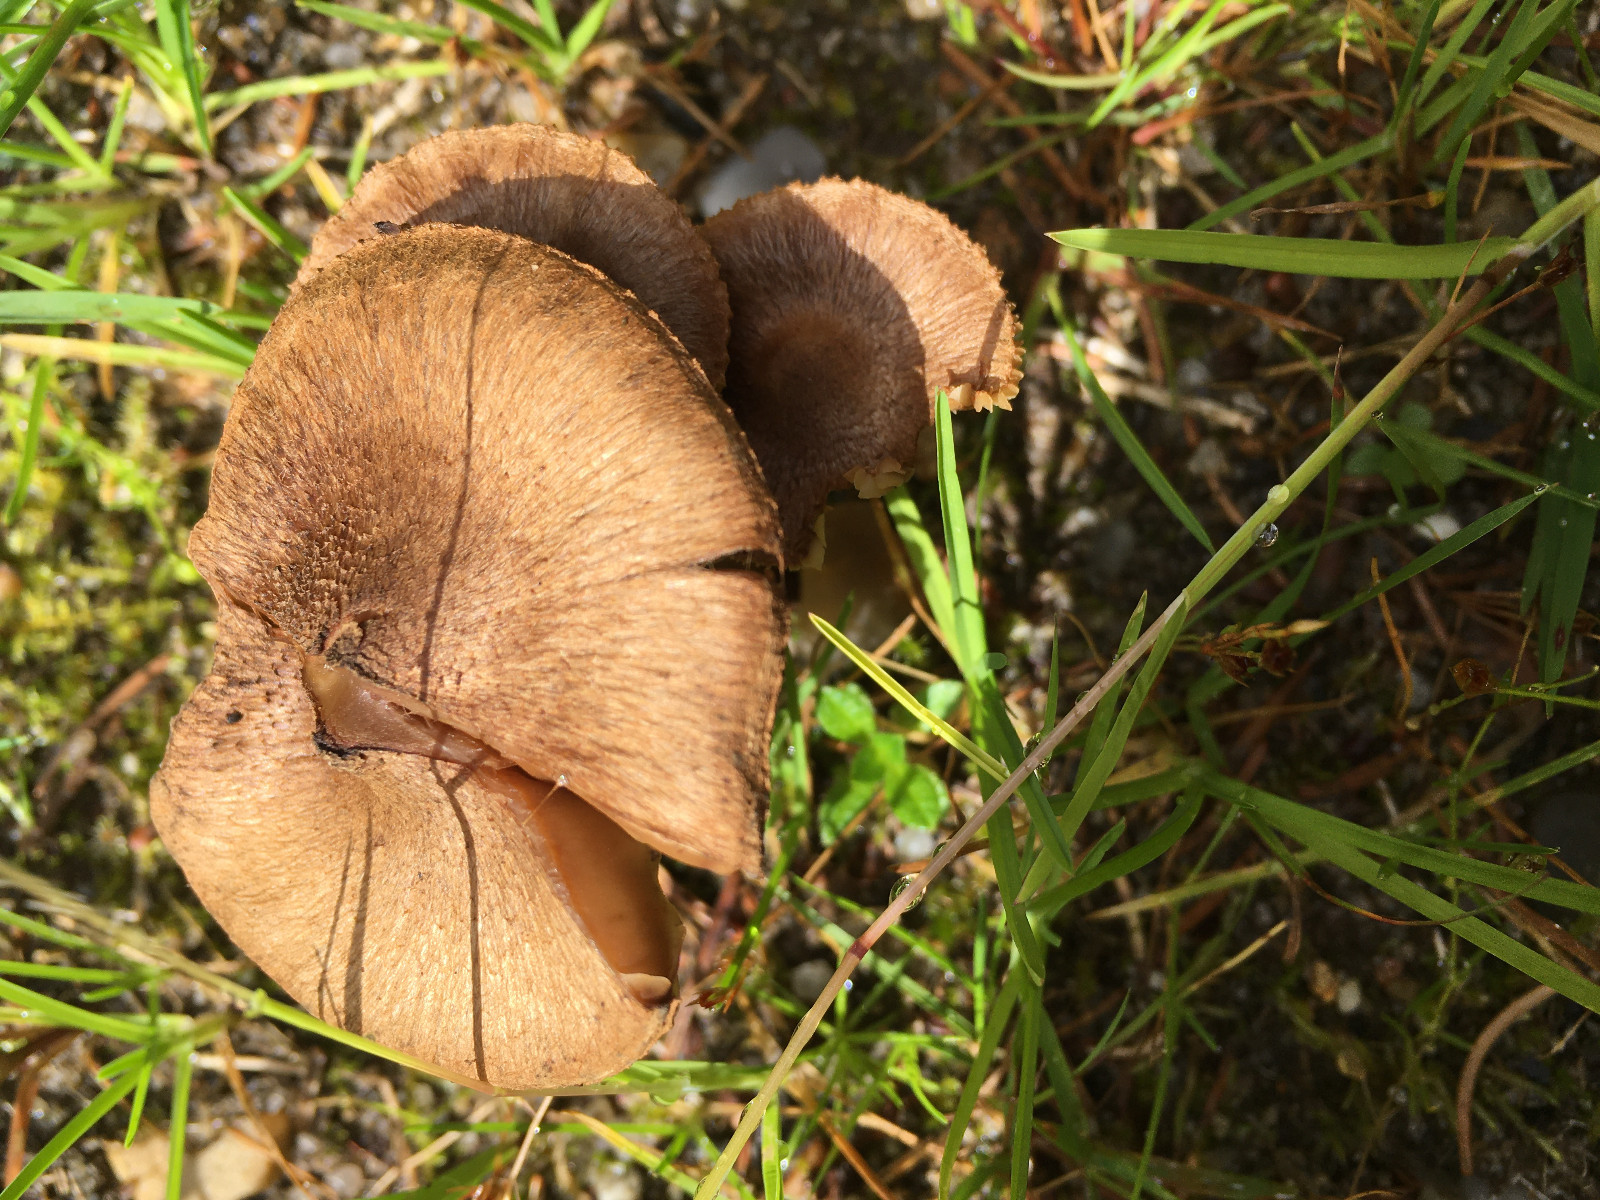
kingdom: Fungi
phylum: Basidiomycota
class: Agaricomycetes
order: Agaricales
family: Inocybaceae
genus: Inocybe
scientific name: Inocybe
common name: trævlhat
